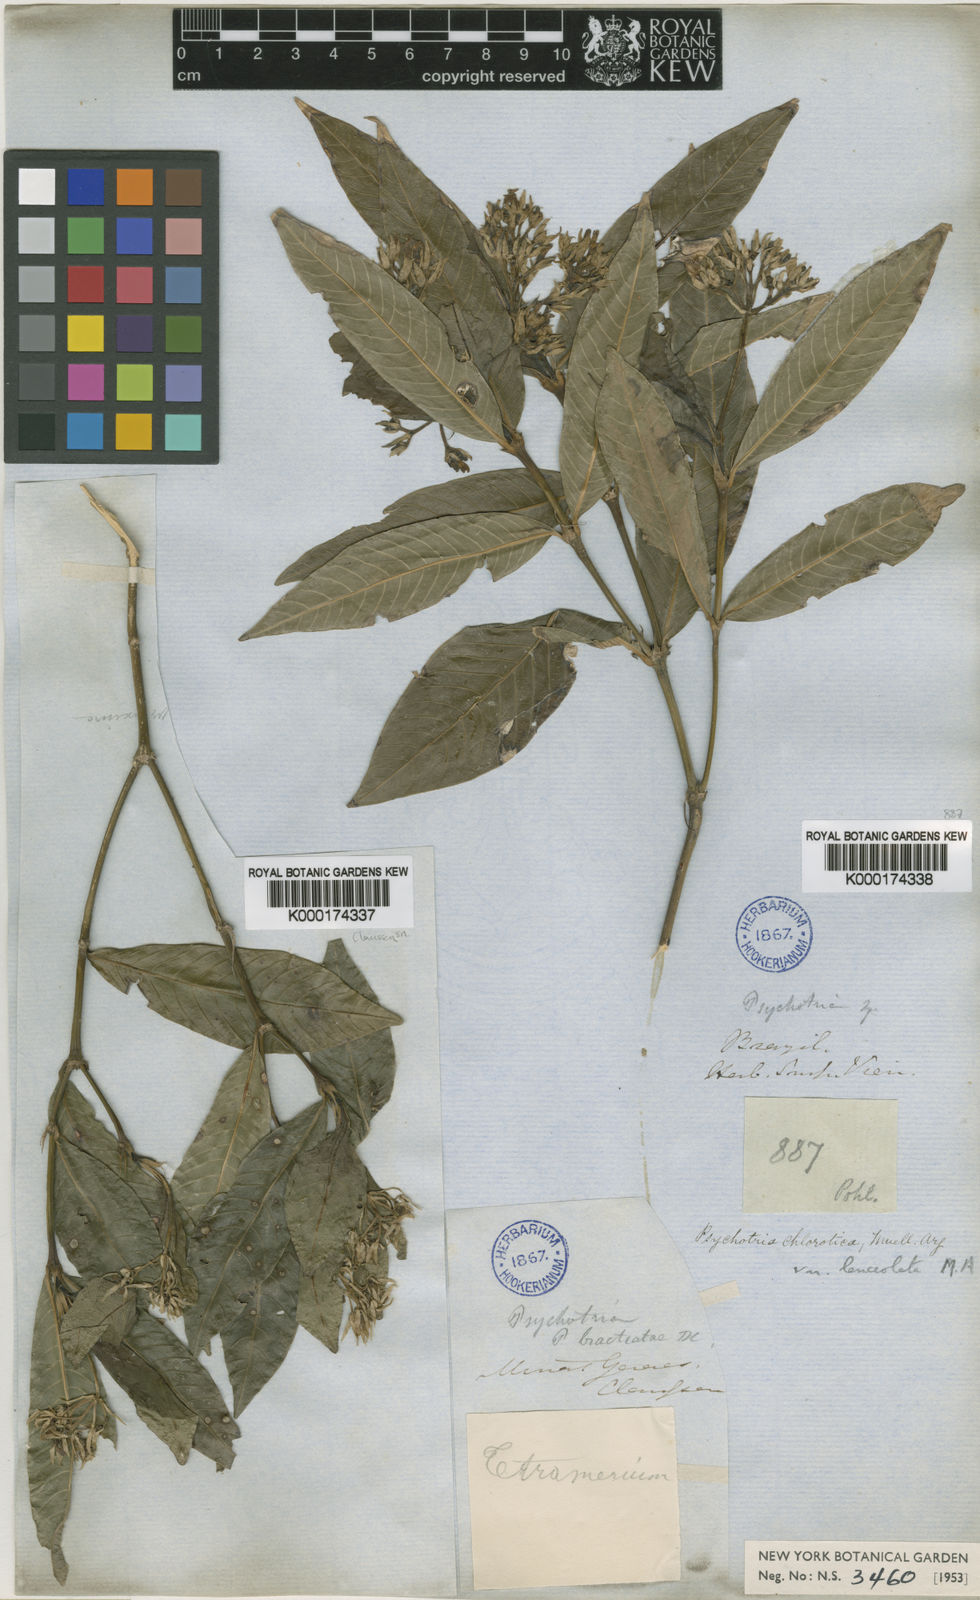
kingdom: Plantae
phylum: Tracheophyta
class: Magnoliopsida
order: Gentianales
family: Rubiaceae
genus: Palicourea
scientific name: Palicourea violacea
